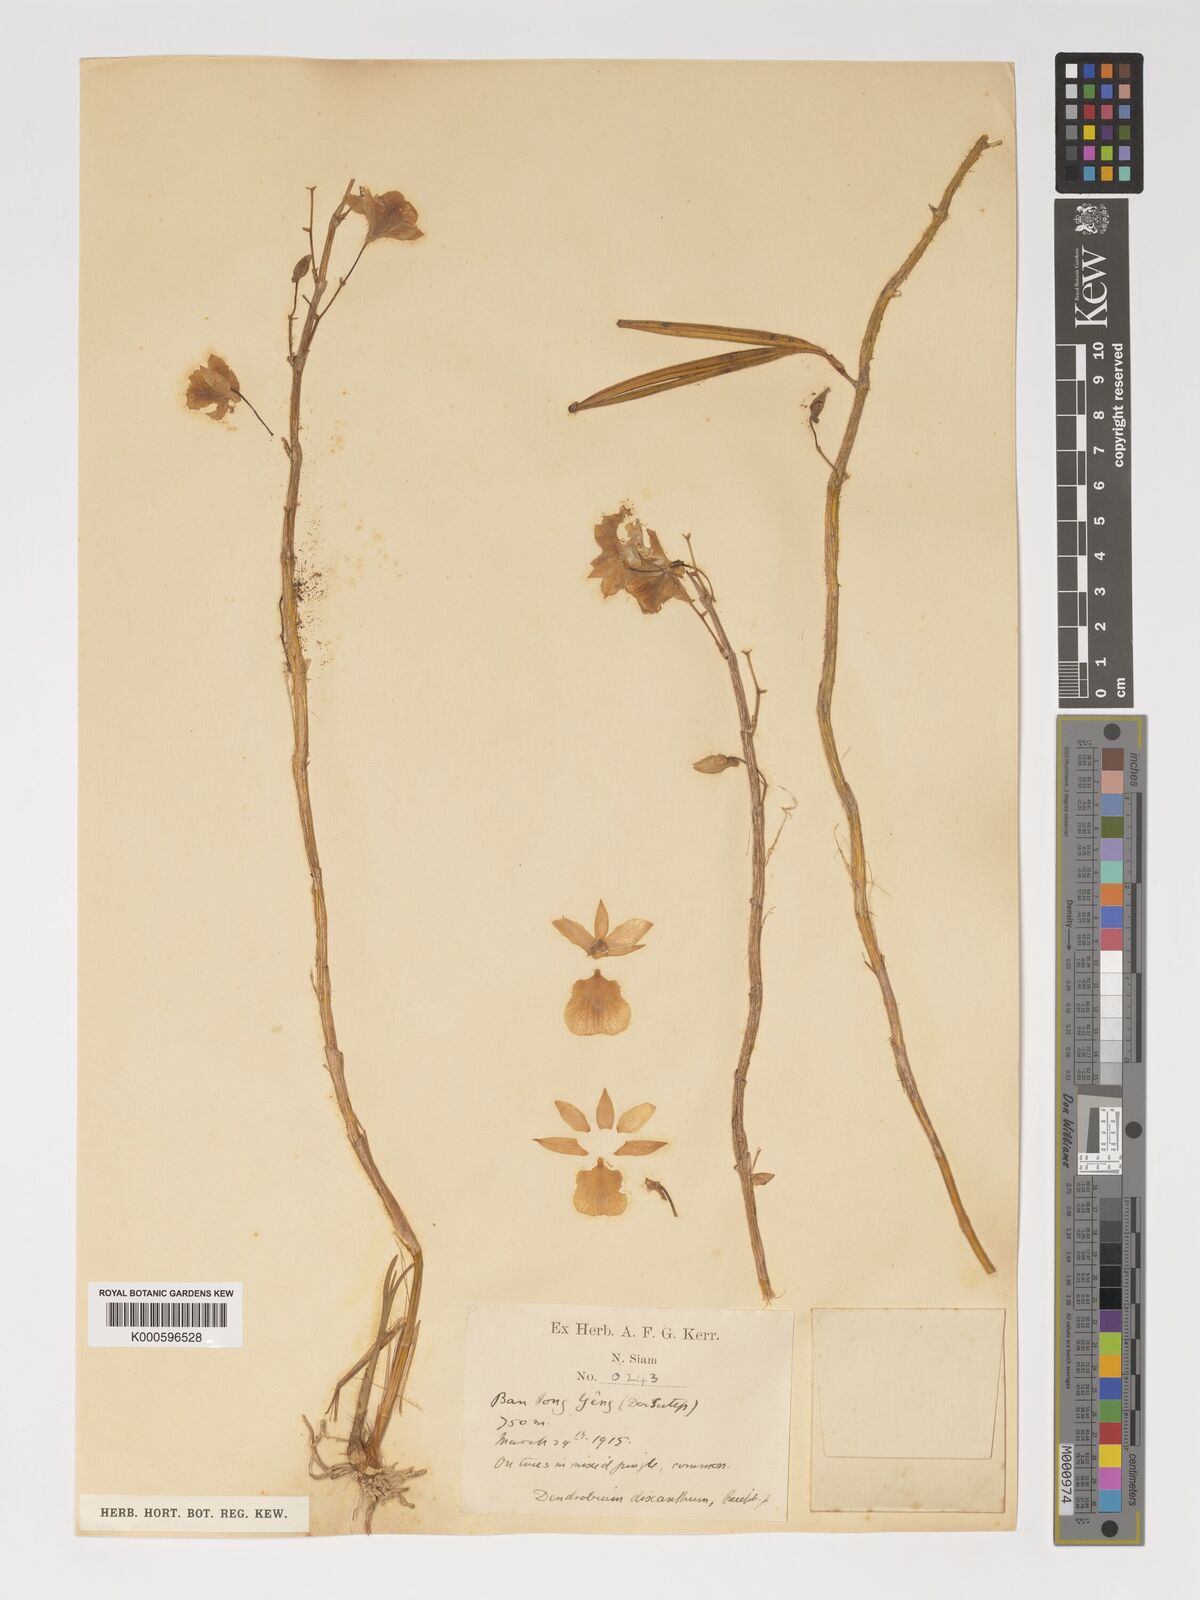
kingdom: Plantae
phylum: Tracheophyta
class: Liliopsida
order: Asparagales
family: Orchidaceae
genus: Dendrobium
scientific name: Dendrobium dixanthum
